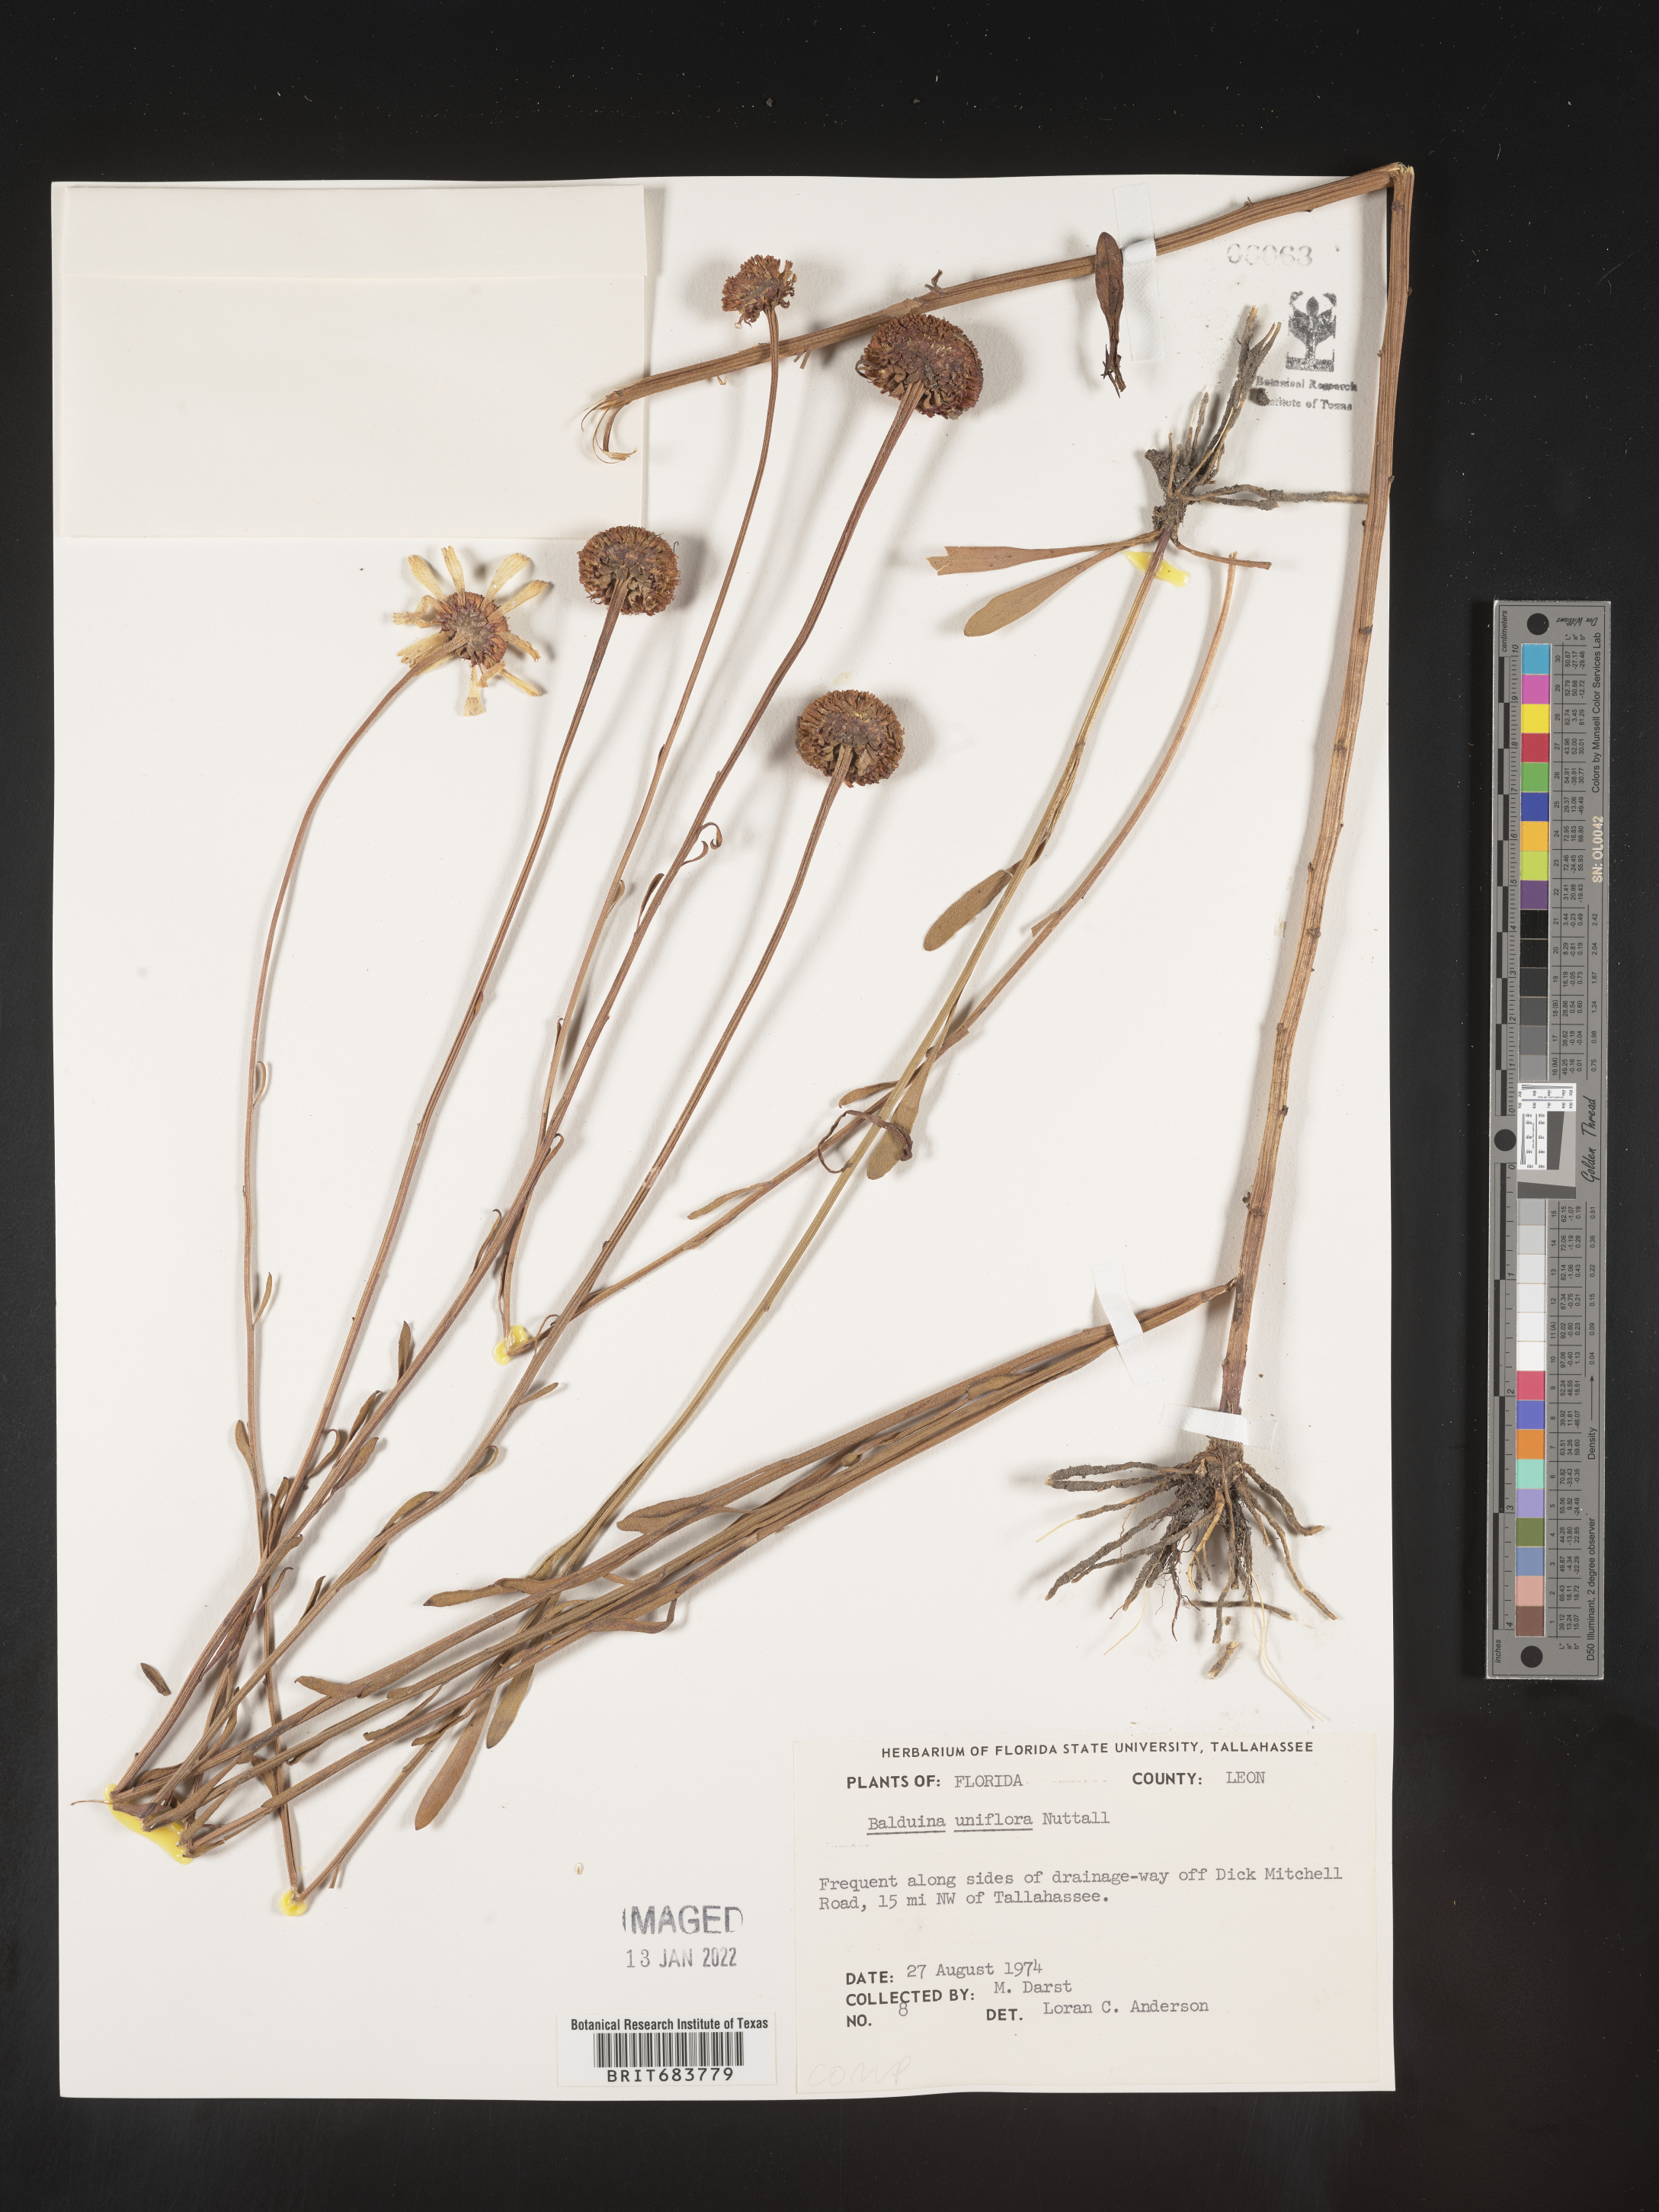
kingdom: Plantae
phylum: Tracheophyta
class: Magnoliopsida
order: Asterales
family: Asteraceae
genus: Balduina
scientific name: Balduina uniflora
